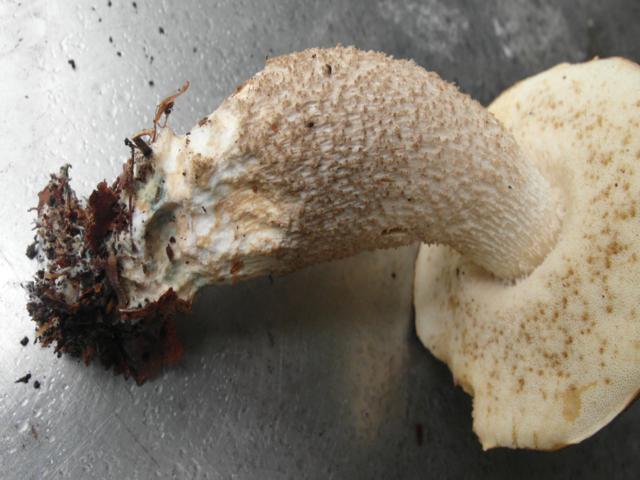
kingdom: Fungi
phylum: Basidiomycota
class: Agaricomycetes
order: Boletales
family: Boletaceae
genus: Leccinum
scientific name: Leccinum cyaneobasileucum
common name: almindelig skælrørhat
